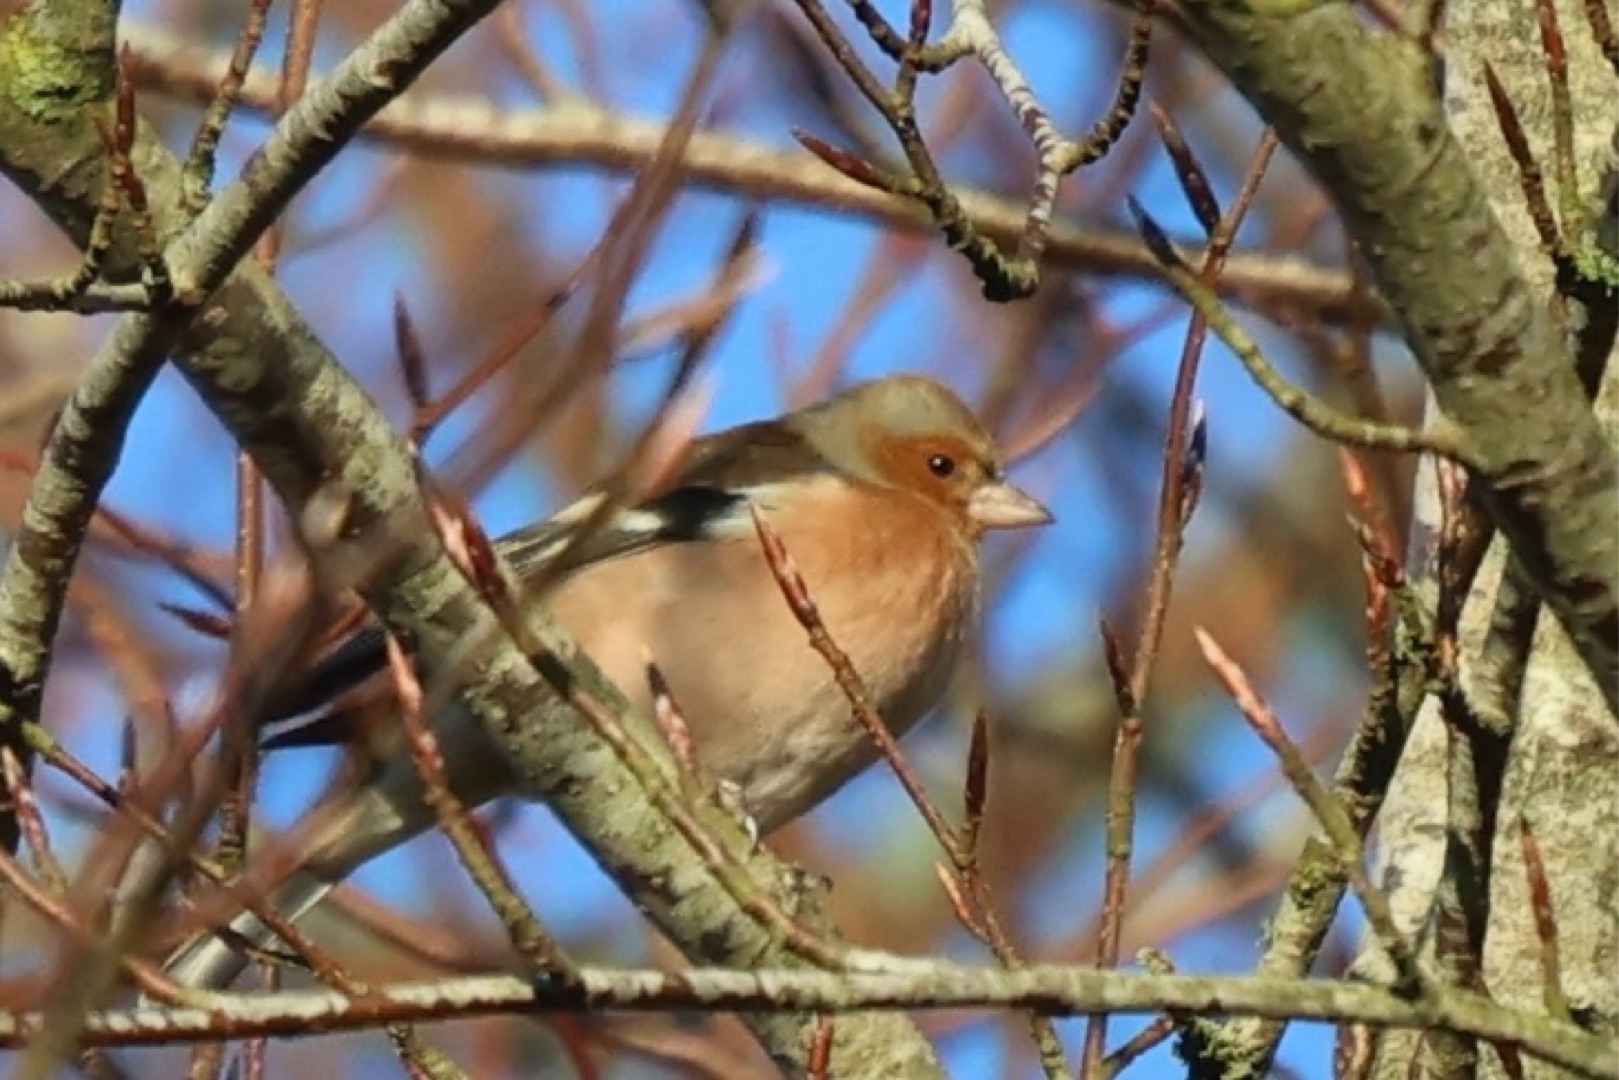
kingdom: Animalia
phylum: Chordata
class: Aves
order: Passeriformes
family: Fringillidae
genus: Fringilla
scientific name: Fringilla coelebs
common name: Bogfinke
